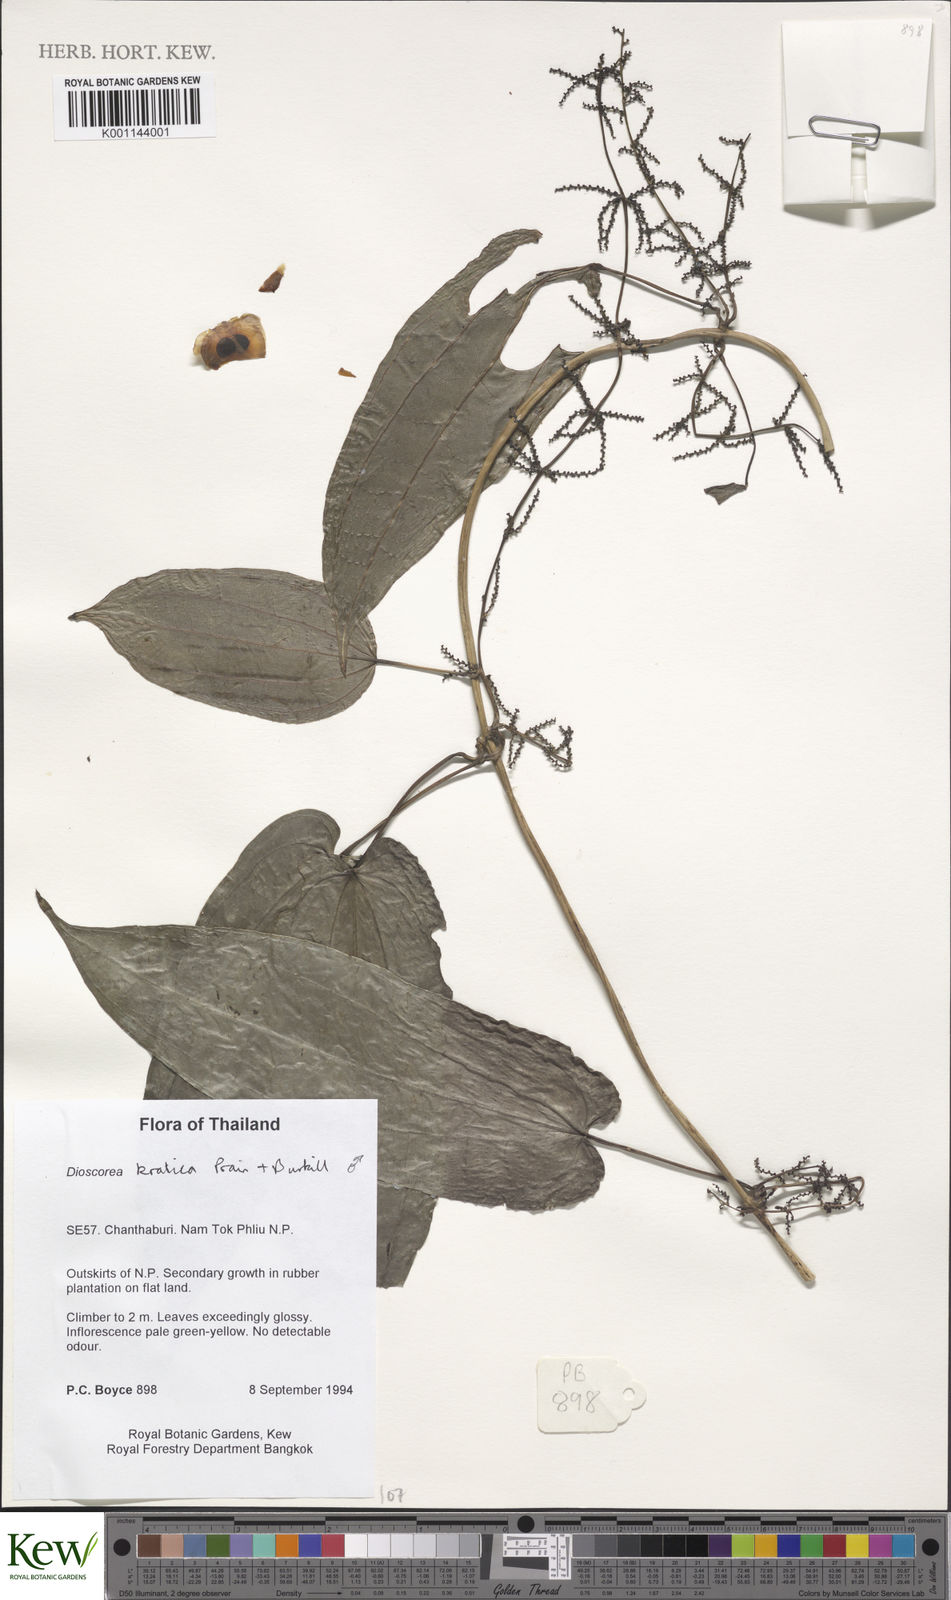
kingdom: Plantae
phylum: Tracheophyta
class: Liliopsida
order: Dioscoreales
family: Dioscoreaceae
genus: Dioscorea
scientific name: Dioscorea kratica
